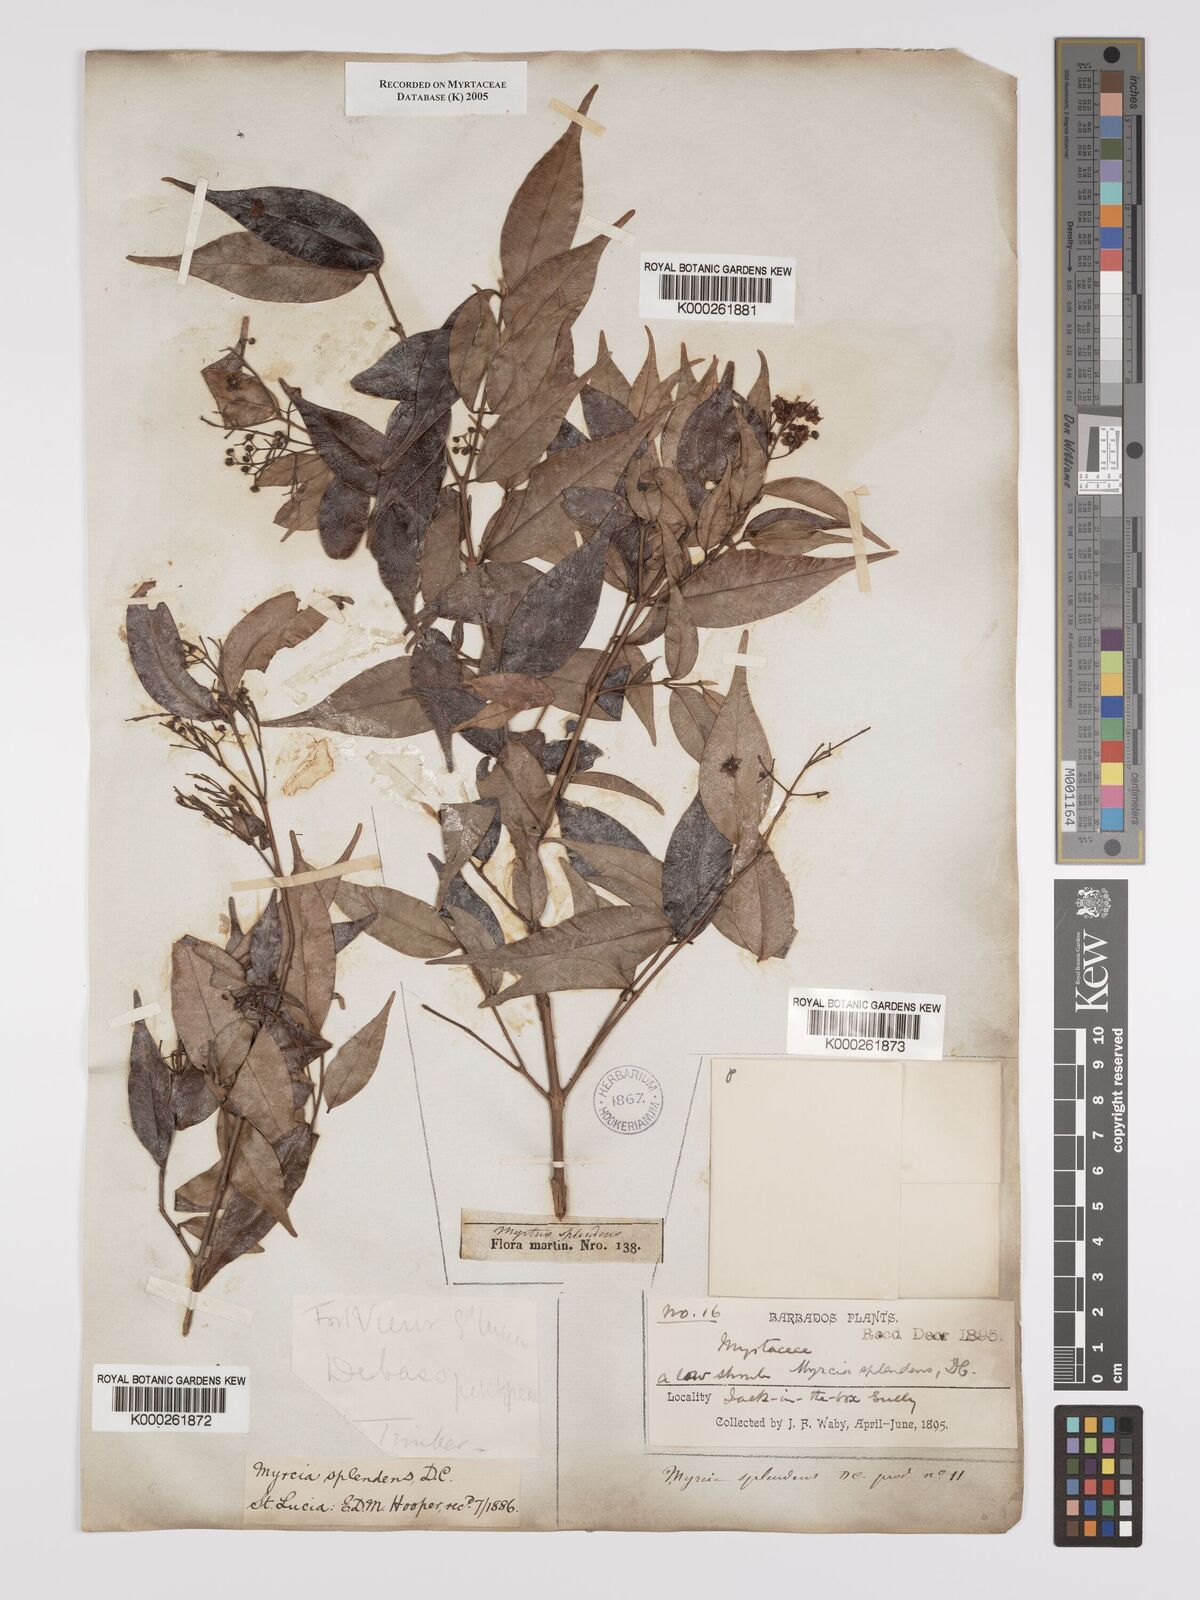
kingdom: Plantae
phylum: Tracheophyta
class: Magnoliopsida
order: Myrtales
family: Myrtaceae
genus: Myrcia
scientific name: Myrcia splendens
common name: Surinam cherry
